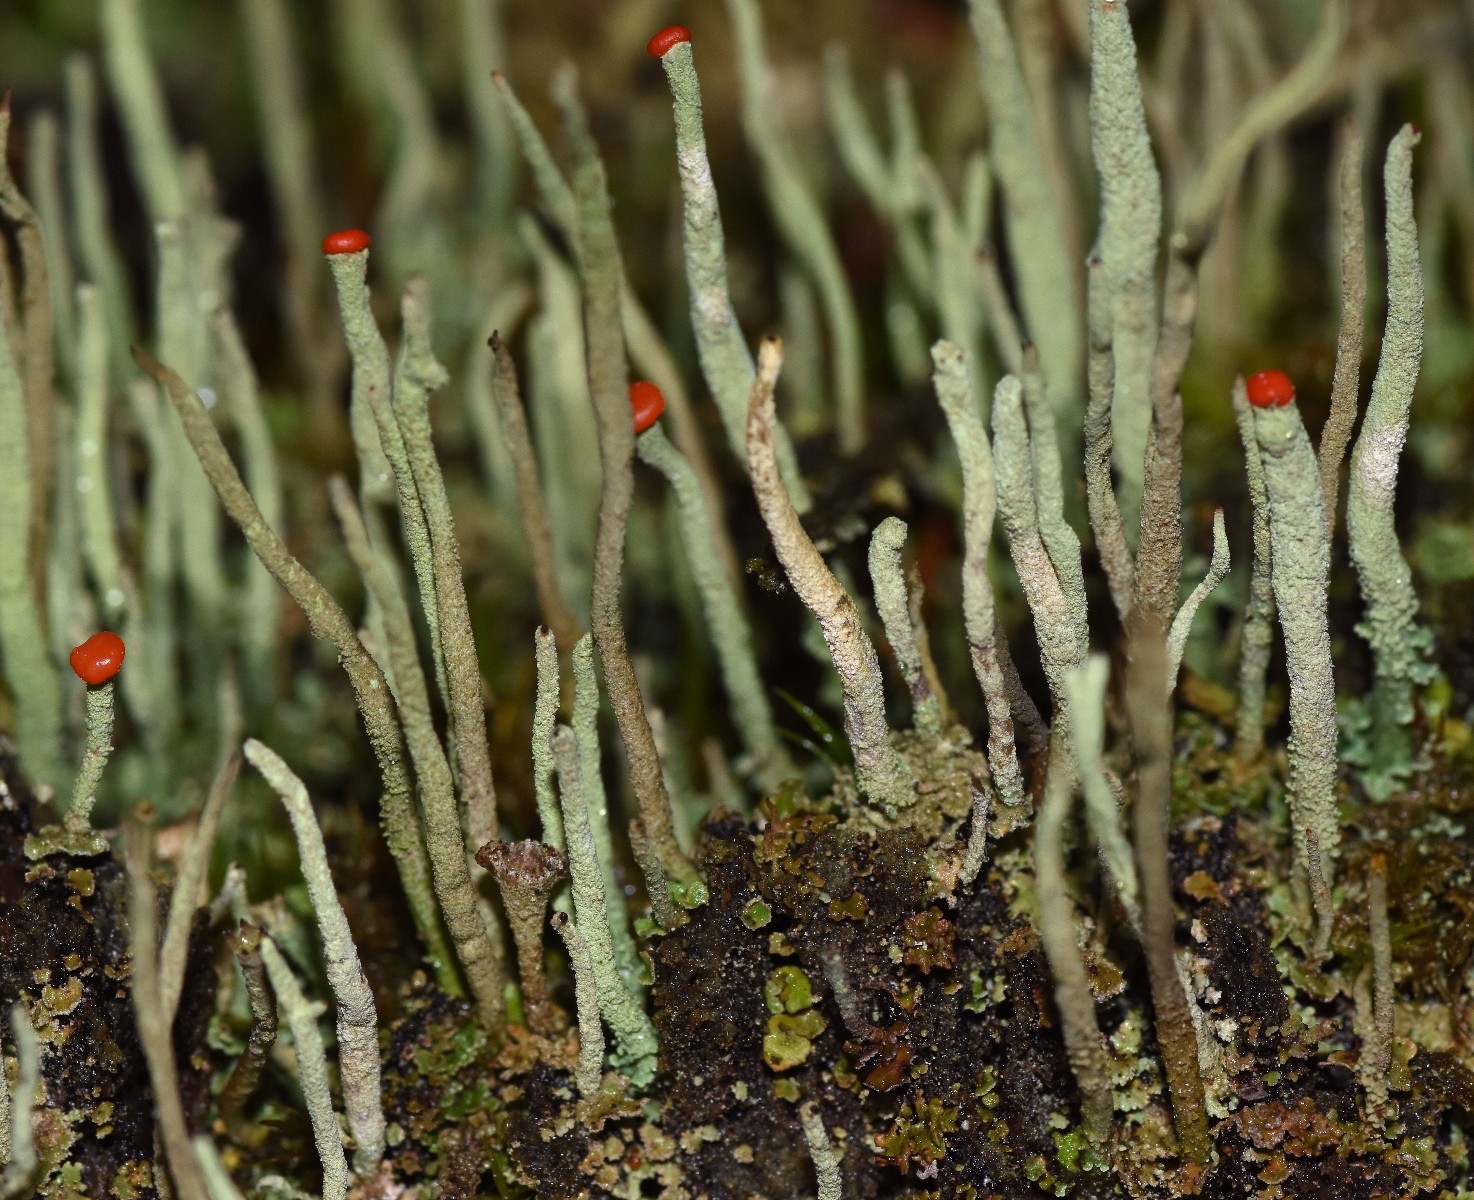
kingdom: Fungi
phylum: Ascomycota
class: Lecanoromycetes
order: Lecanorales
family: Cladoniaceae
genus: Cladonia
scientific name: Cladonia macilenta
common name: indsvunden bægerlav
